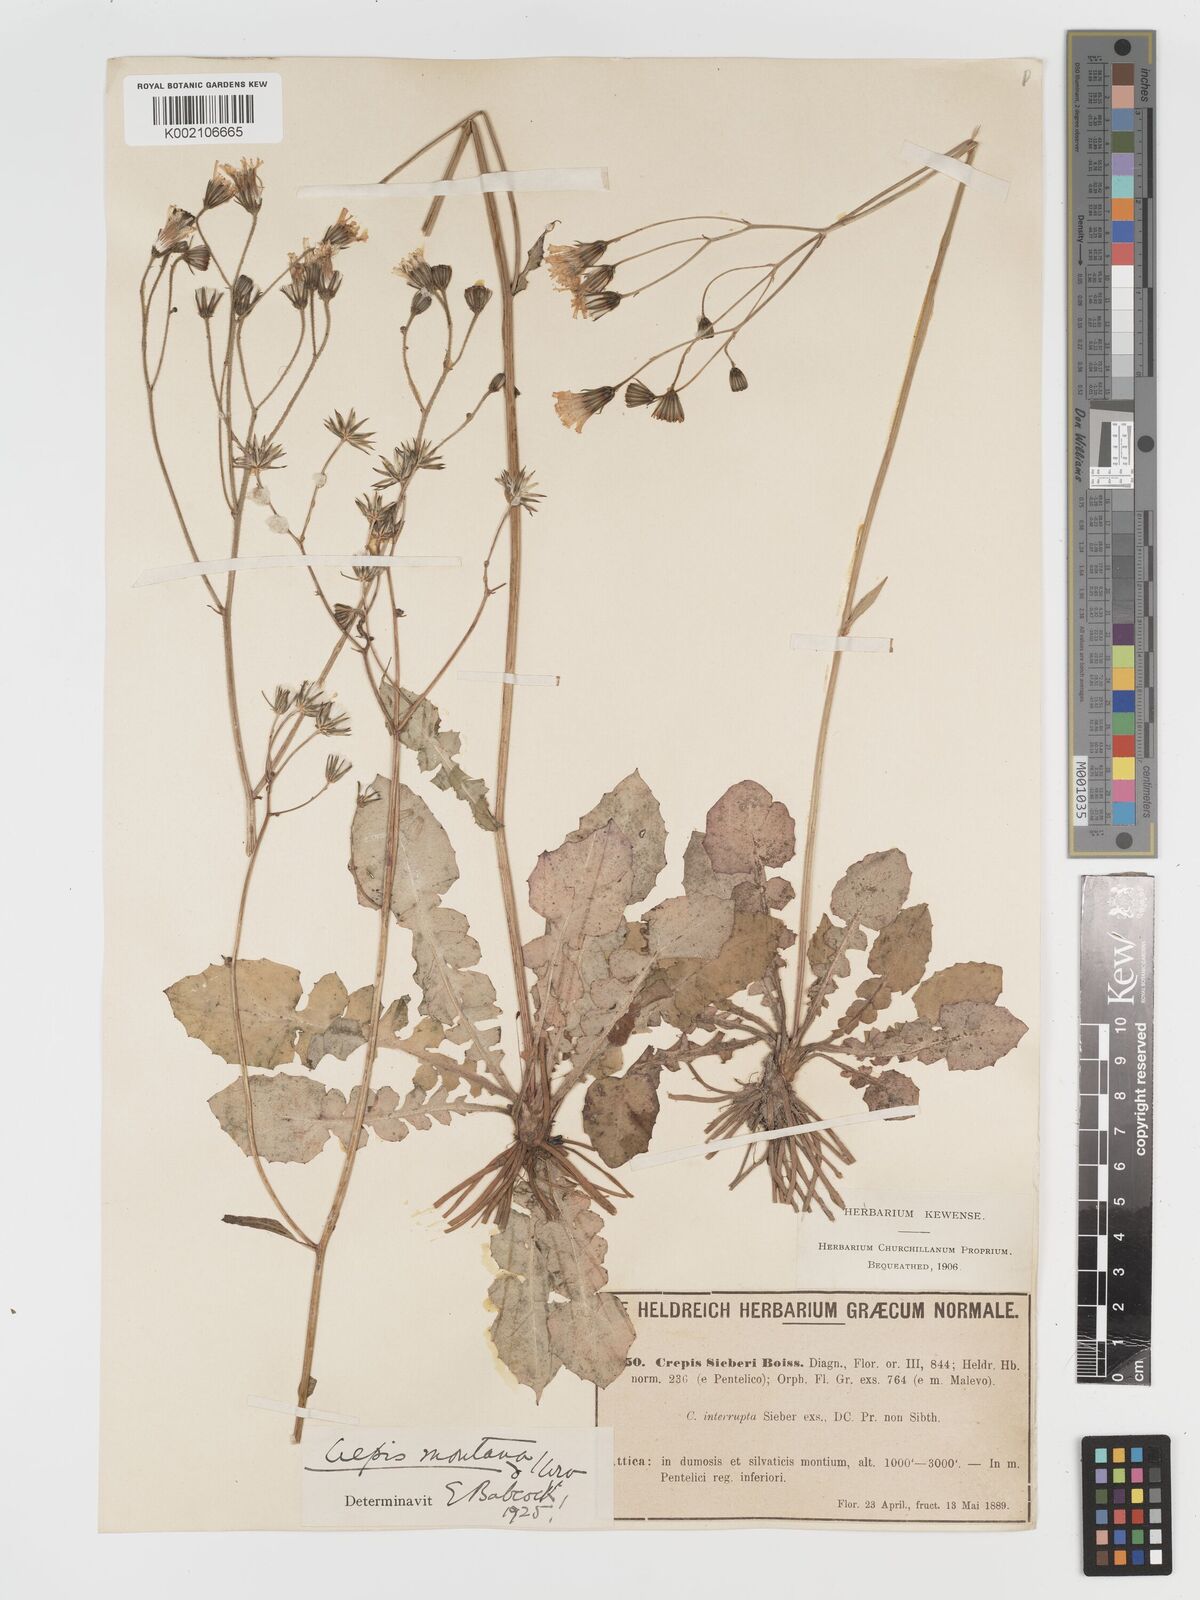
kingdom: Plantae
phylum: Tracheophyta
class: Magnoliopsida
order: Asterales
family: Asteraceae
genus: Crepis
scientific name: Crepis
